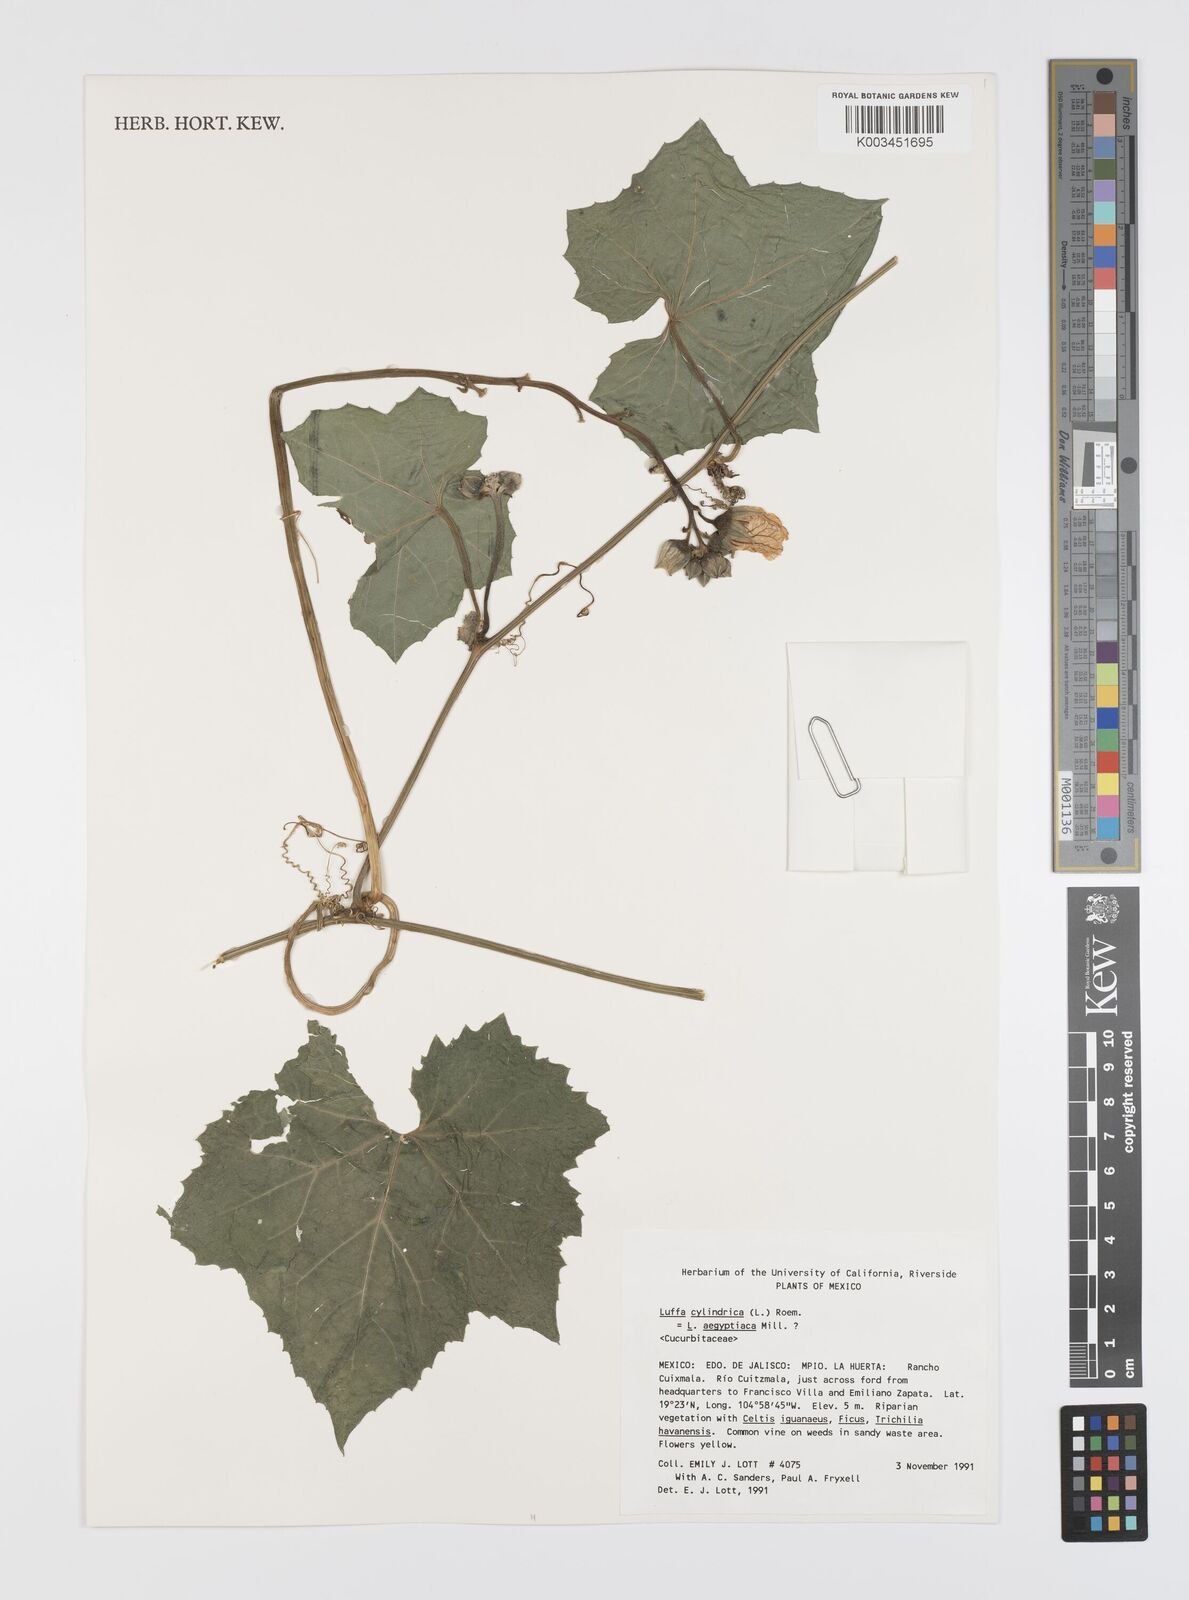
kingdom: Plantae
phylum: Tracheophyta
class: Magnoliopsida
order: Cucurbitales
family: Cucurbitaceae
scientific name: Cucurbitaceae
